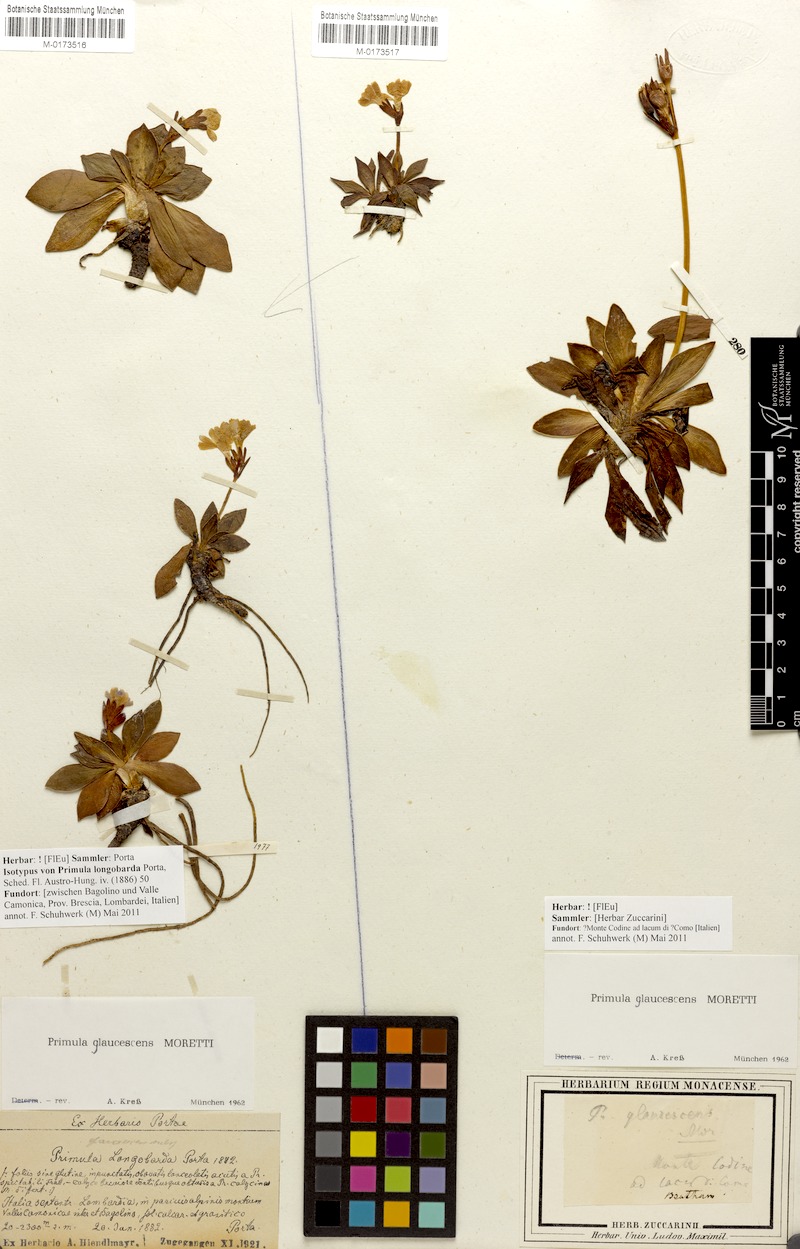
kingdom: Plantae
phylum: Tracheophyta
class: Magnoliopsida
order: Ericales
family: Primulaceae
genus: Primula
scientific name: Primula glaucescens
